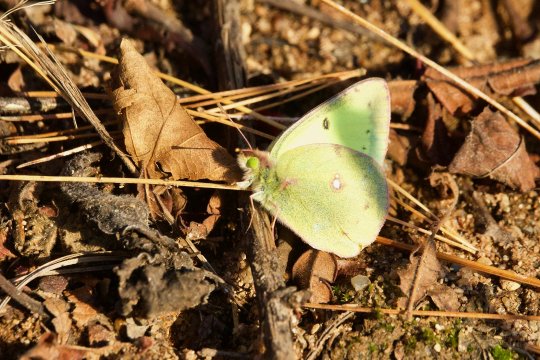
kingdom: Animalia
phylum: Arthropoda
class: Insecta
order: Lepidoptera
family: Pieridae
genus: Colias
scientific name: Colias philodice
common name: Clouded Sulphur
